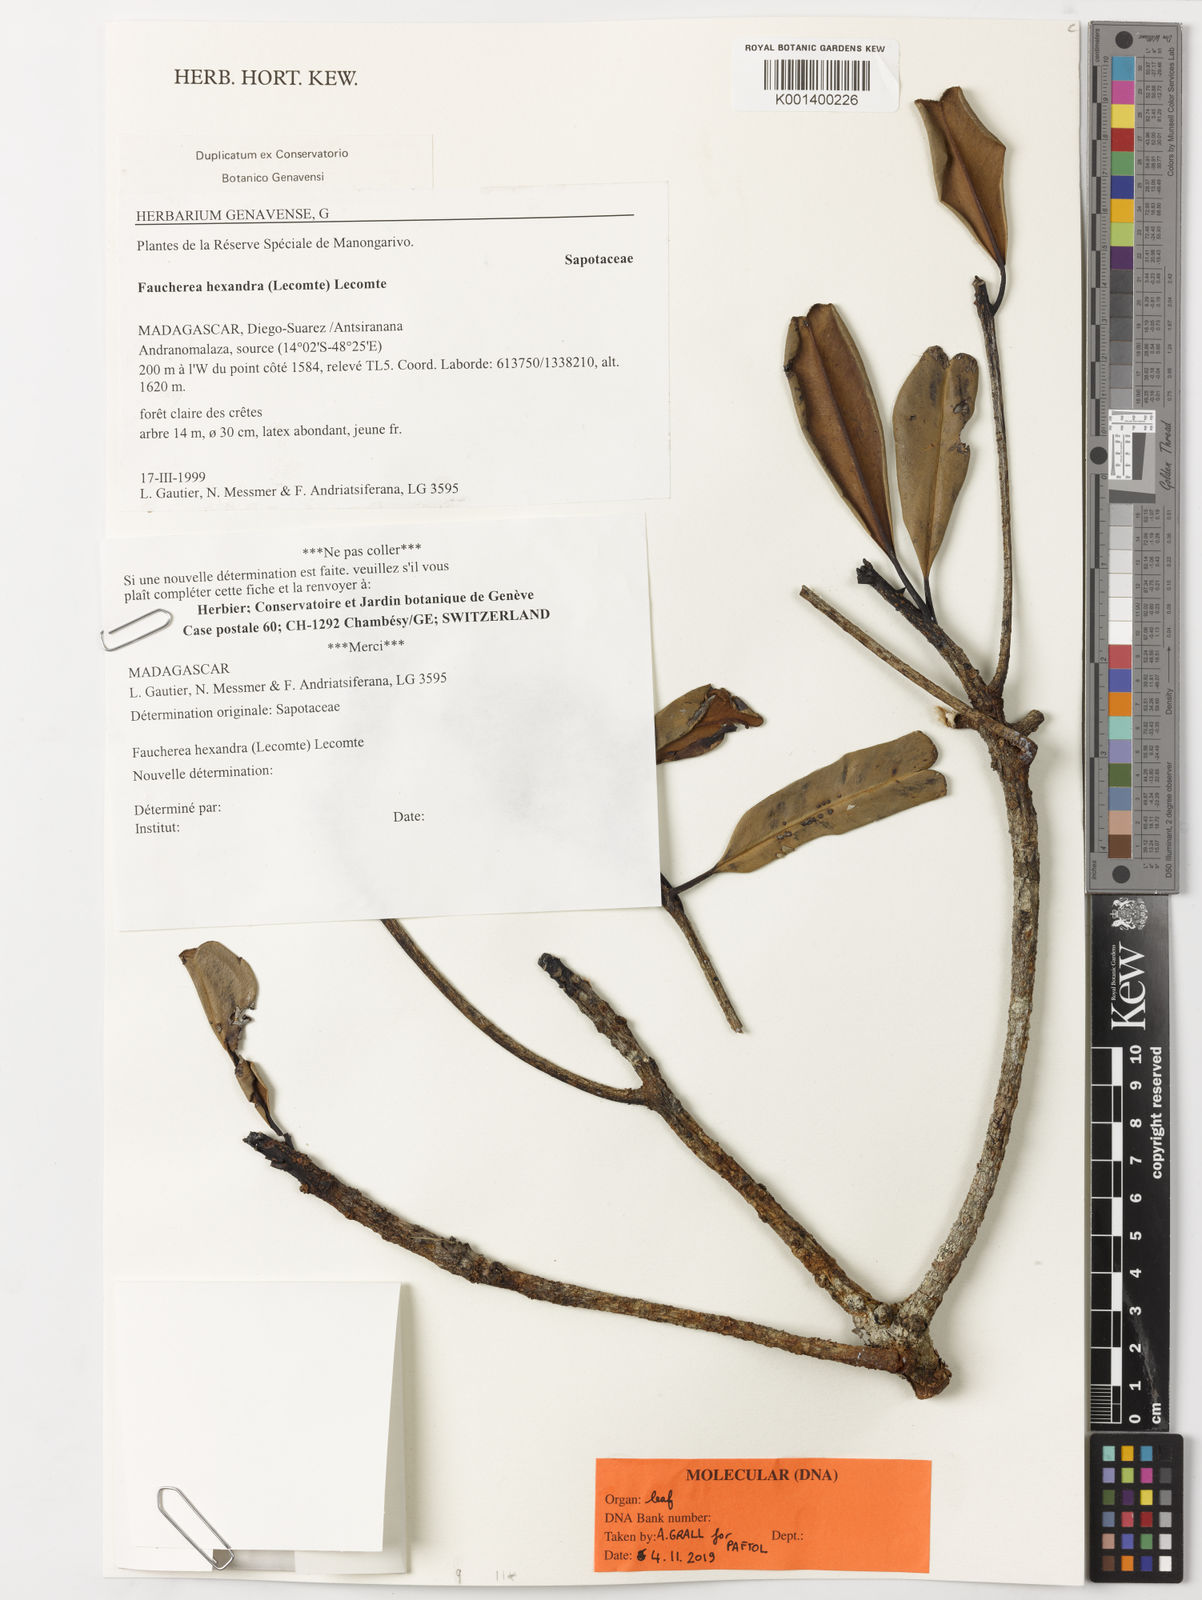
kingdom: Plantae
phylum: Tracheophyta
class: Magnoliopsida
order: Ericales
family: Sapotaceae
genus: Faucherea
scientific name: Faucherea hexandra
